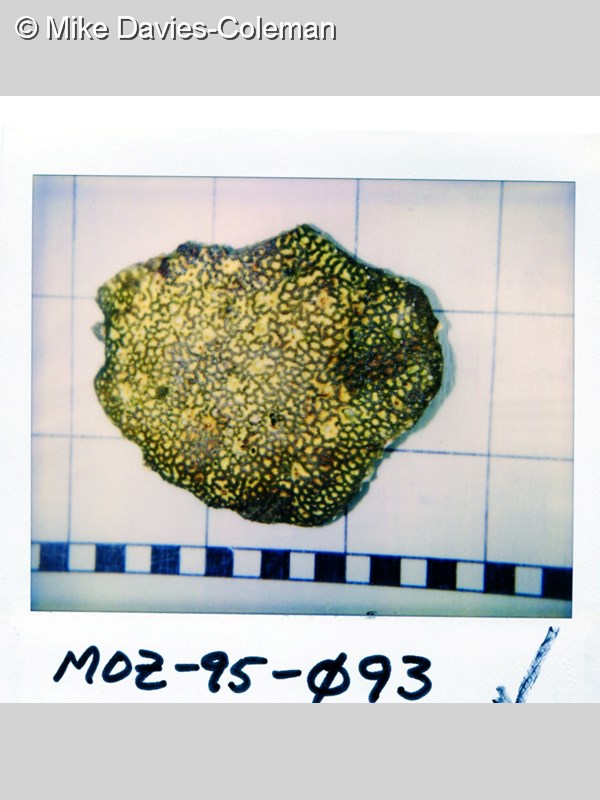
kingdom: Animalia
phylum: Porifera
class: Demospongiae
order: Axinellida
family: Heteroxyidae
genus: Myrmekioderma
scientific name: Myrmekioderma
